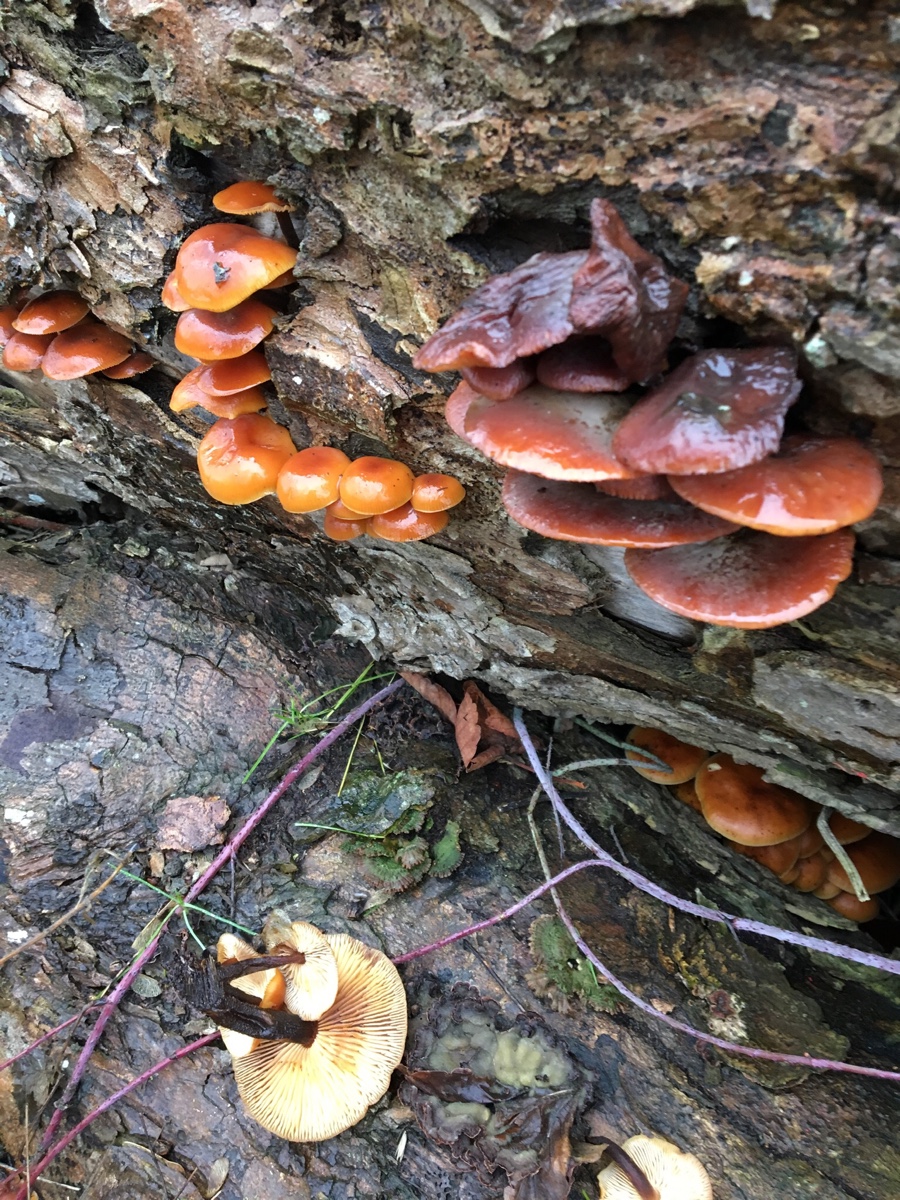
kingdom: Fungi
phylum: Basidiomycota
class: Agaricomycetes
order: Agaricales
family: Physalacriaceae
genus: Flammulina
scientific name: Flammulina
